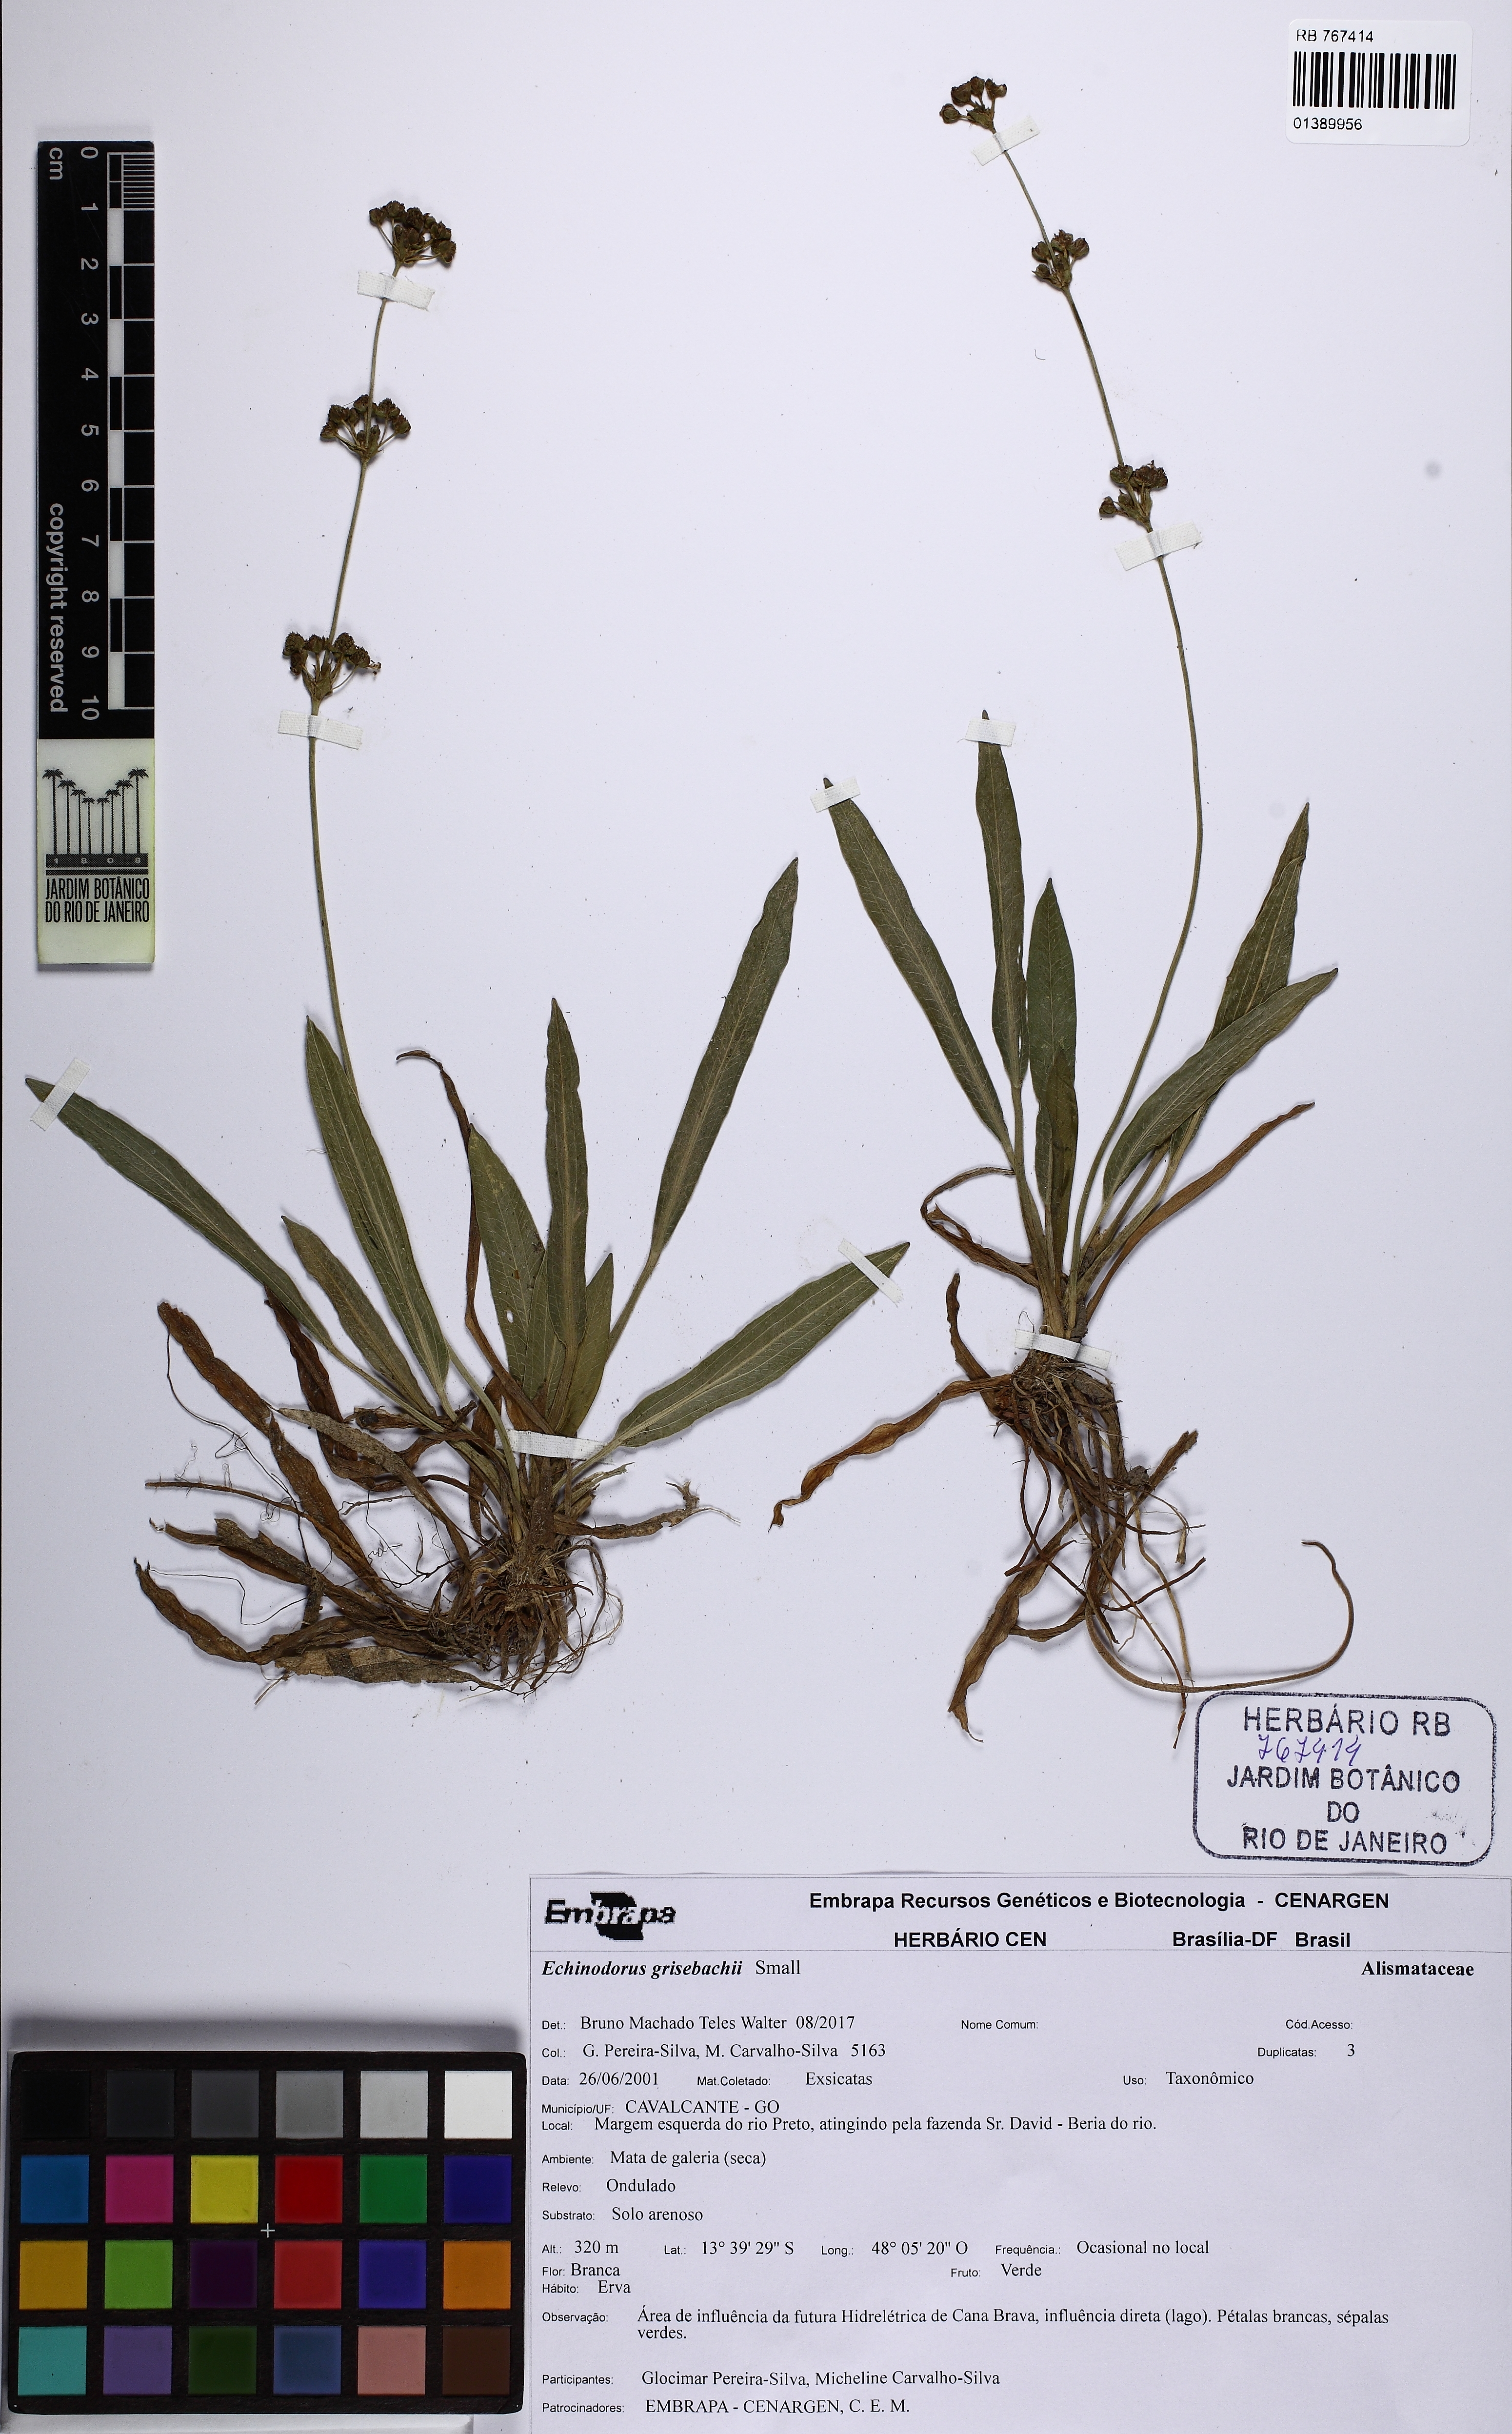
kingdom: Plantae
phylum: Tracheophyta
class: Liliopsida
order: Alismatales
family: Alismataceae
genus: Aquarius
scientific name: Aquarius grisebachii
